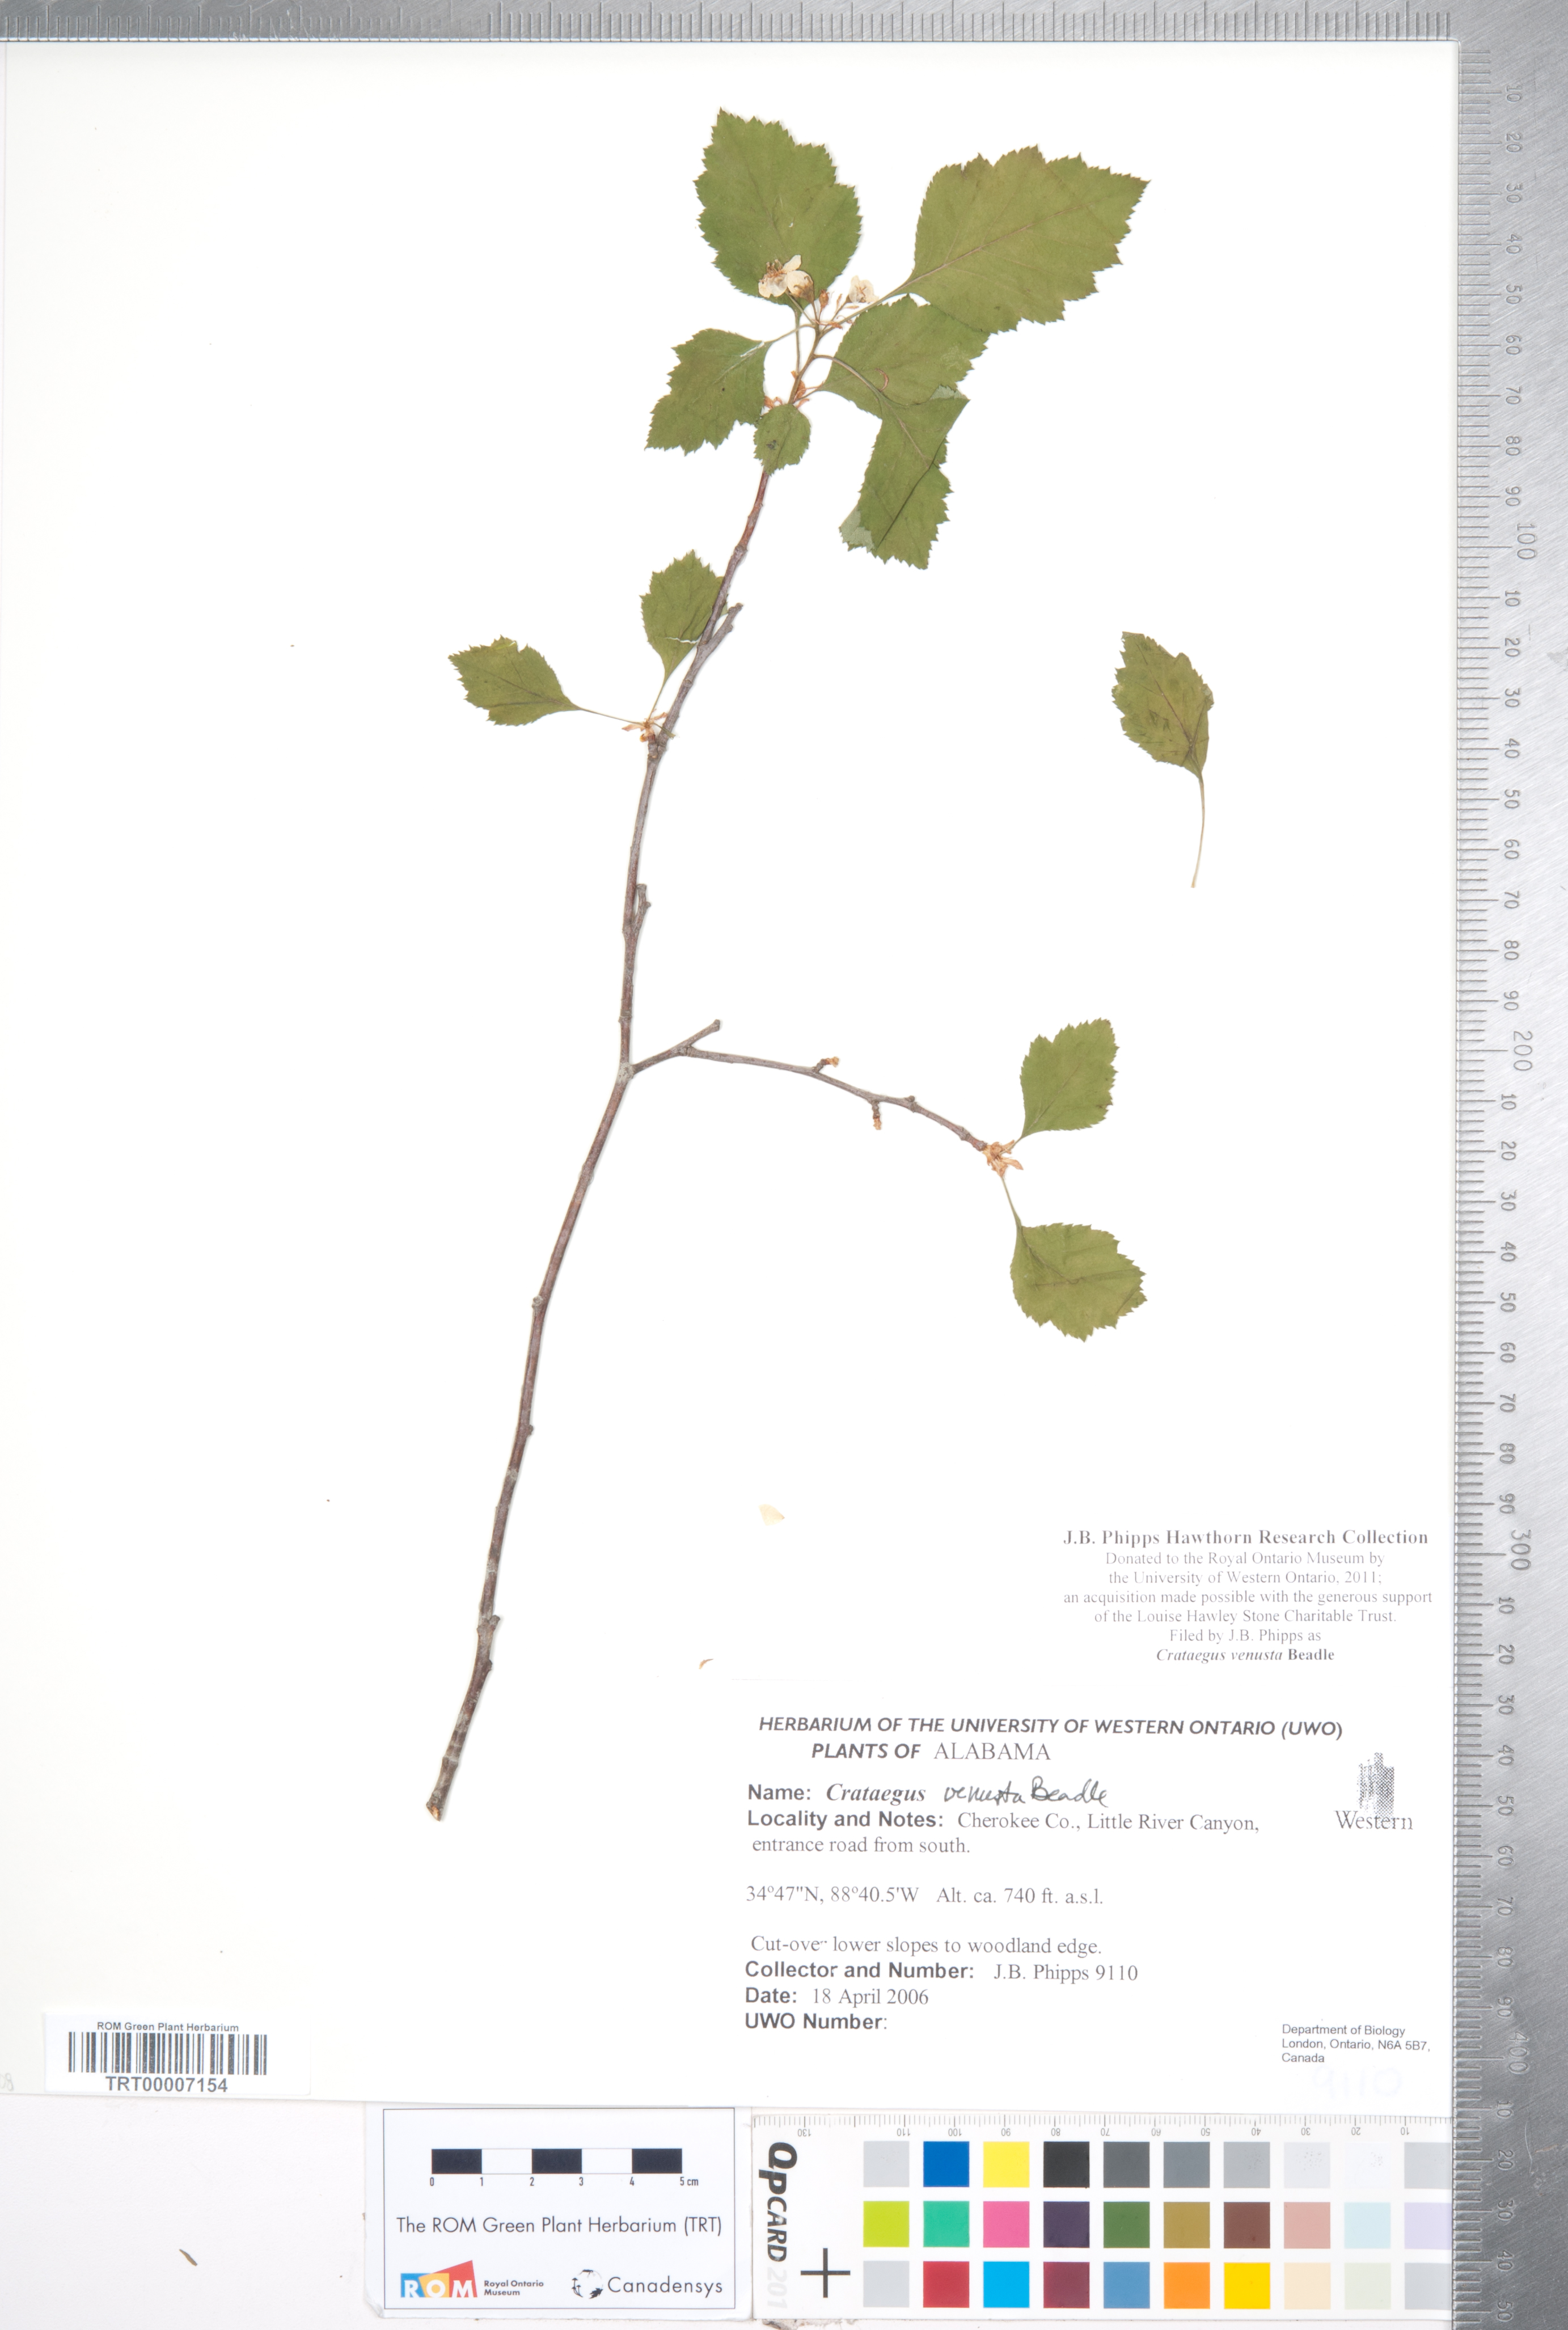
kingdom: Plantae
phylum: Tracheophyta
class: Magnoliopsida
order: Rosales
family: Rosaceae
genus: Crataegus
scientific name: Crataegus venusta
